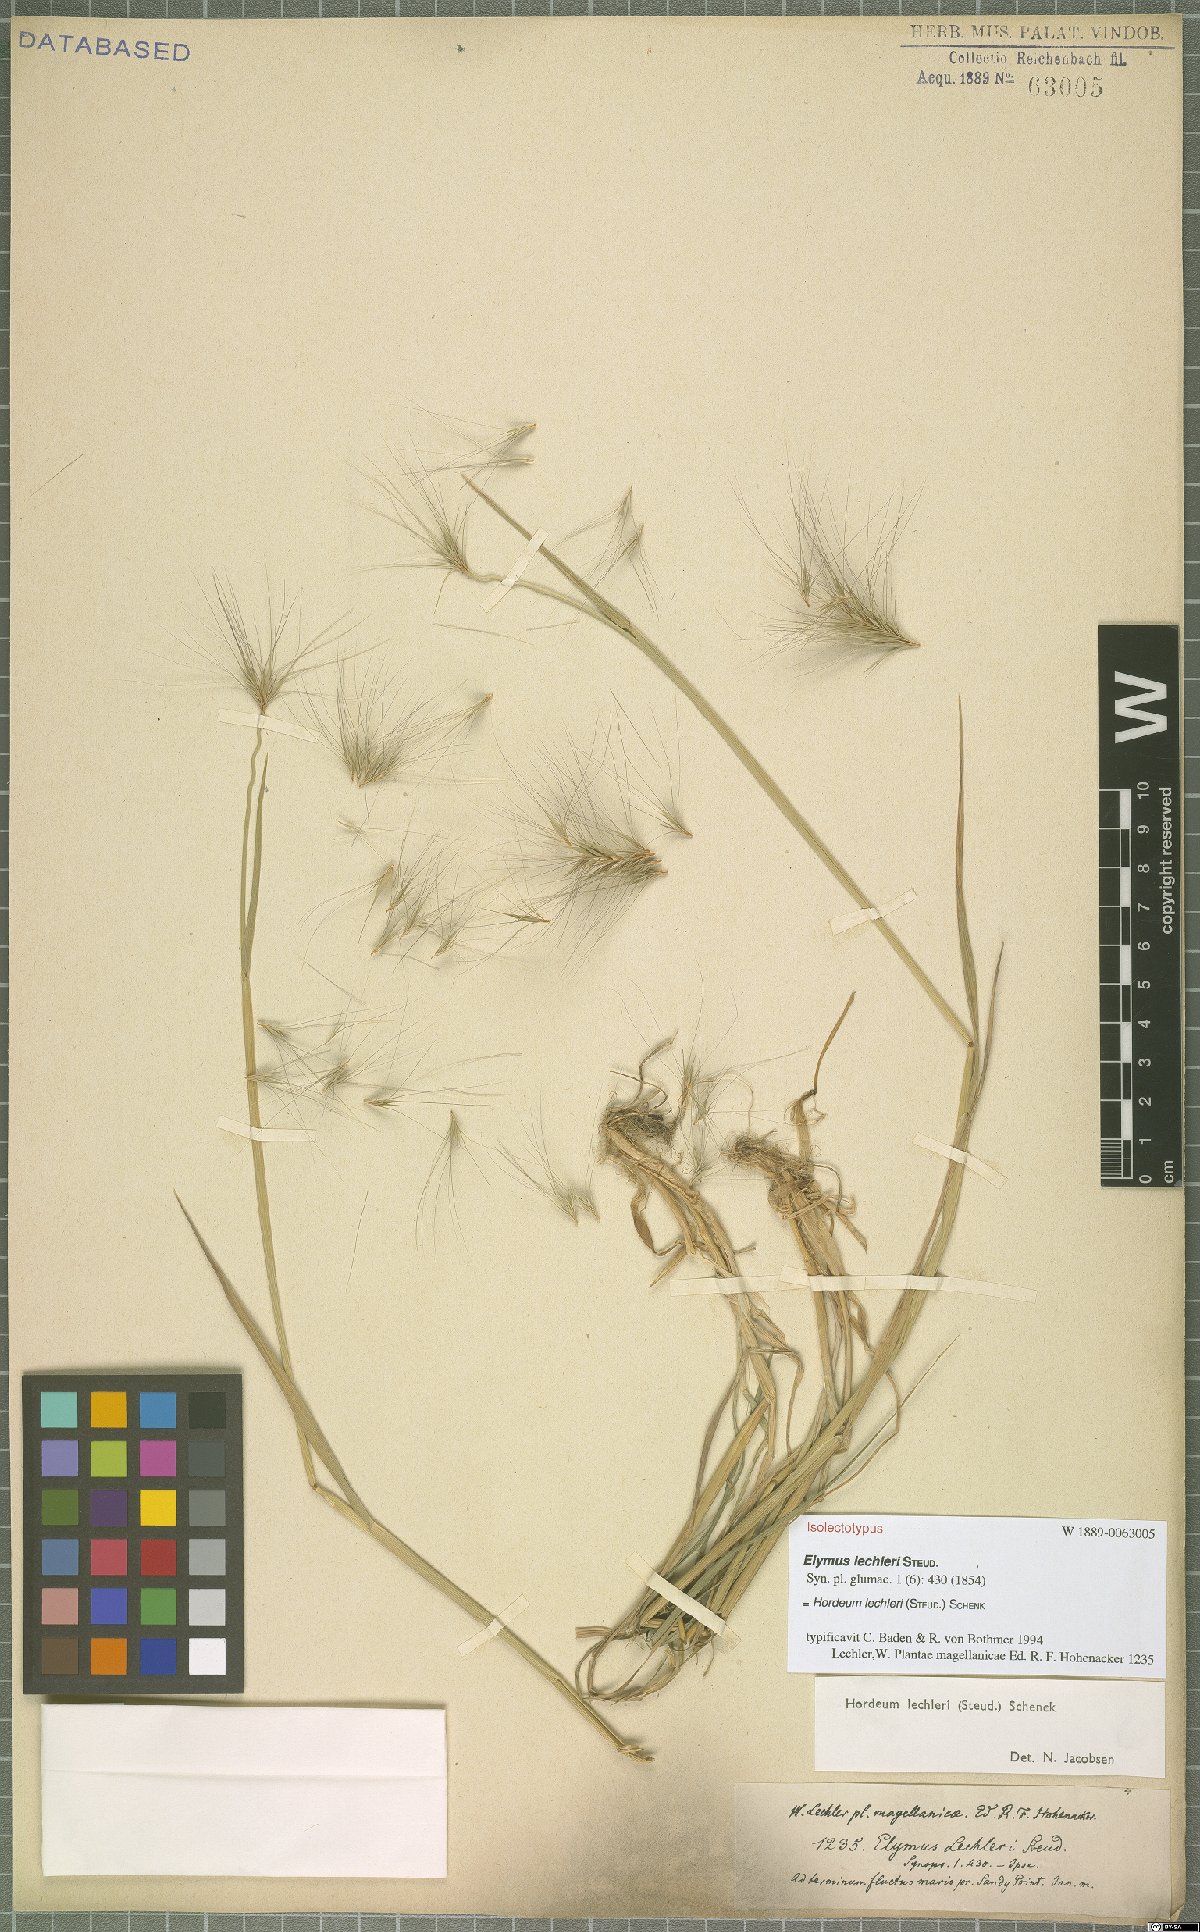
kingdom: Plantae
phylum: Tracheophyta
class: Liliopsida
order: Poales
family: Poaceae
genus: Hordeum
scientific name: Hordeum lechleri
